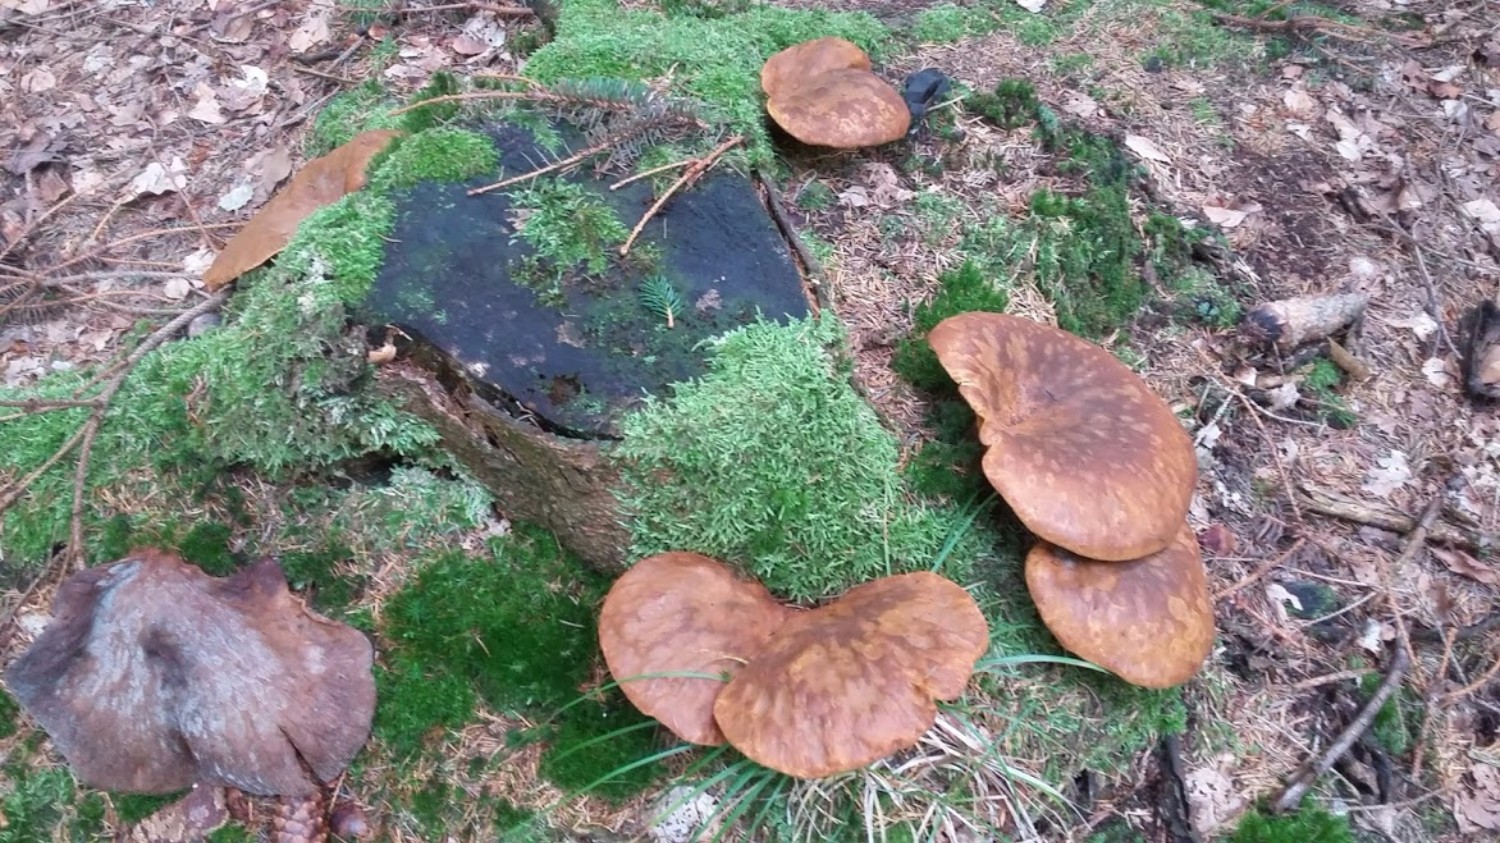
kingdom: Fungi
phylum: Basidiomycota
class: Agaricomycetes
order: Boletales
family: Tapinellaceae
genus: Tapinella
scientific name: Tapinella atrotomentosa
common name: sortfiltet viftesvamp
